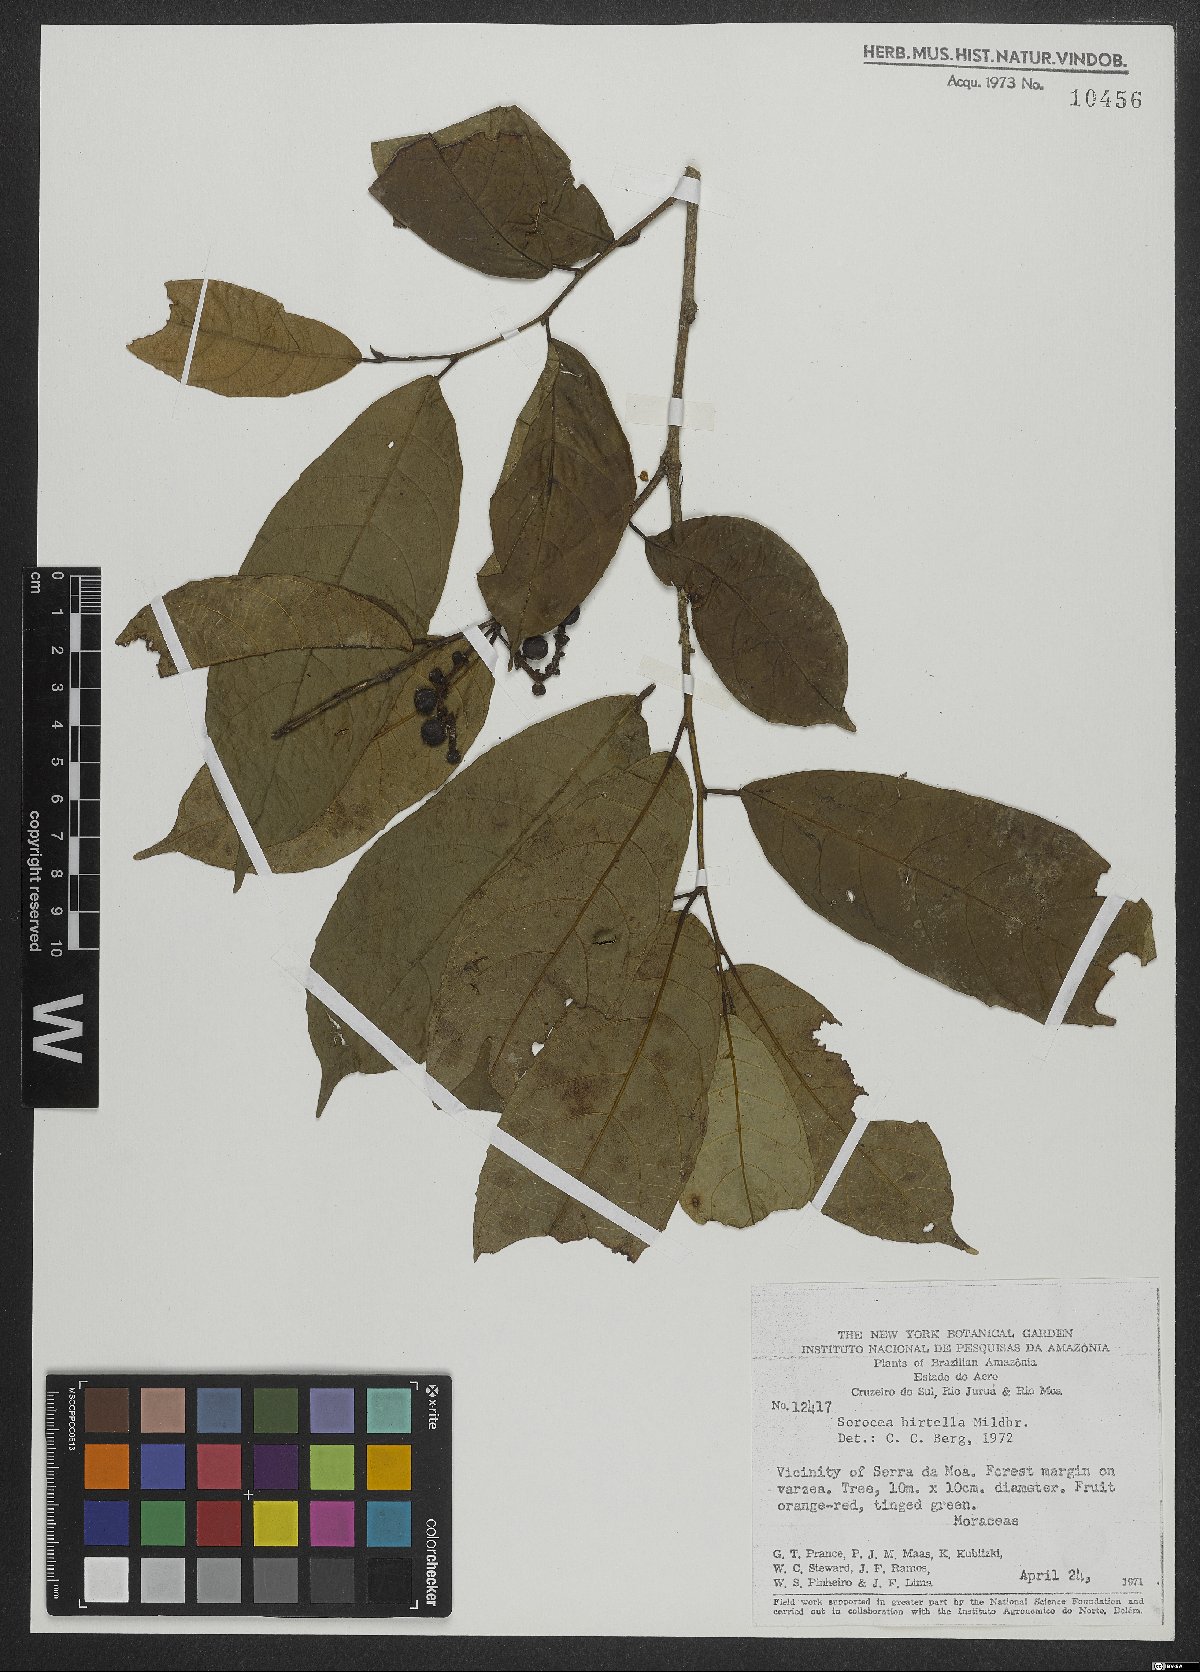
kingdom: Plantae
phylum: Tracheophyta
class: Magnoliopsida
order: Rosales
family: Moraceae
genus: Sorocea
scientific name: Sorocea pubivena
